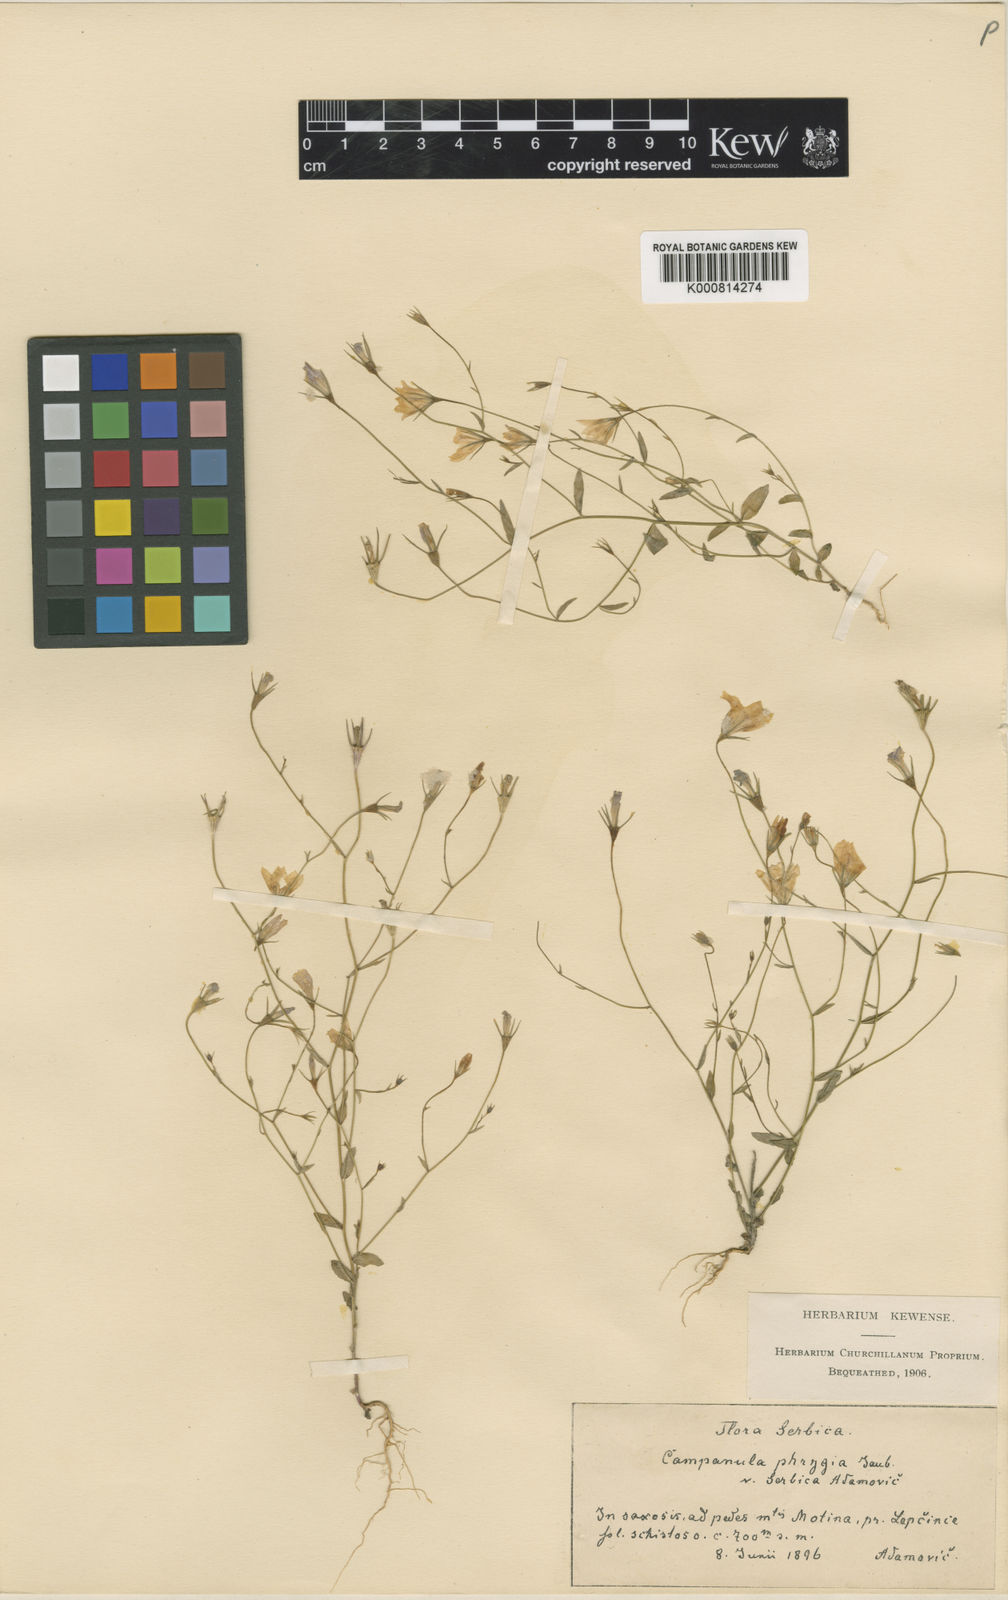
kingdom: Plantae
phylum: Tracheophyta
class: Magnoliopsida
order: Asterales
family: Campanulaceae
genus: Campanula
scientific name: Campanula phrygia
